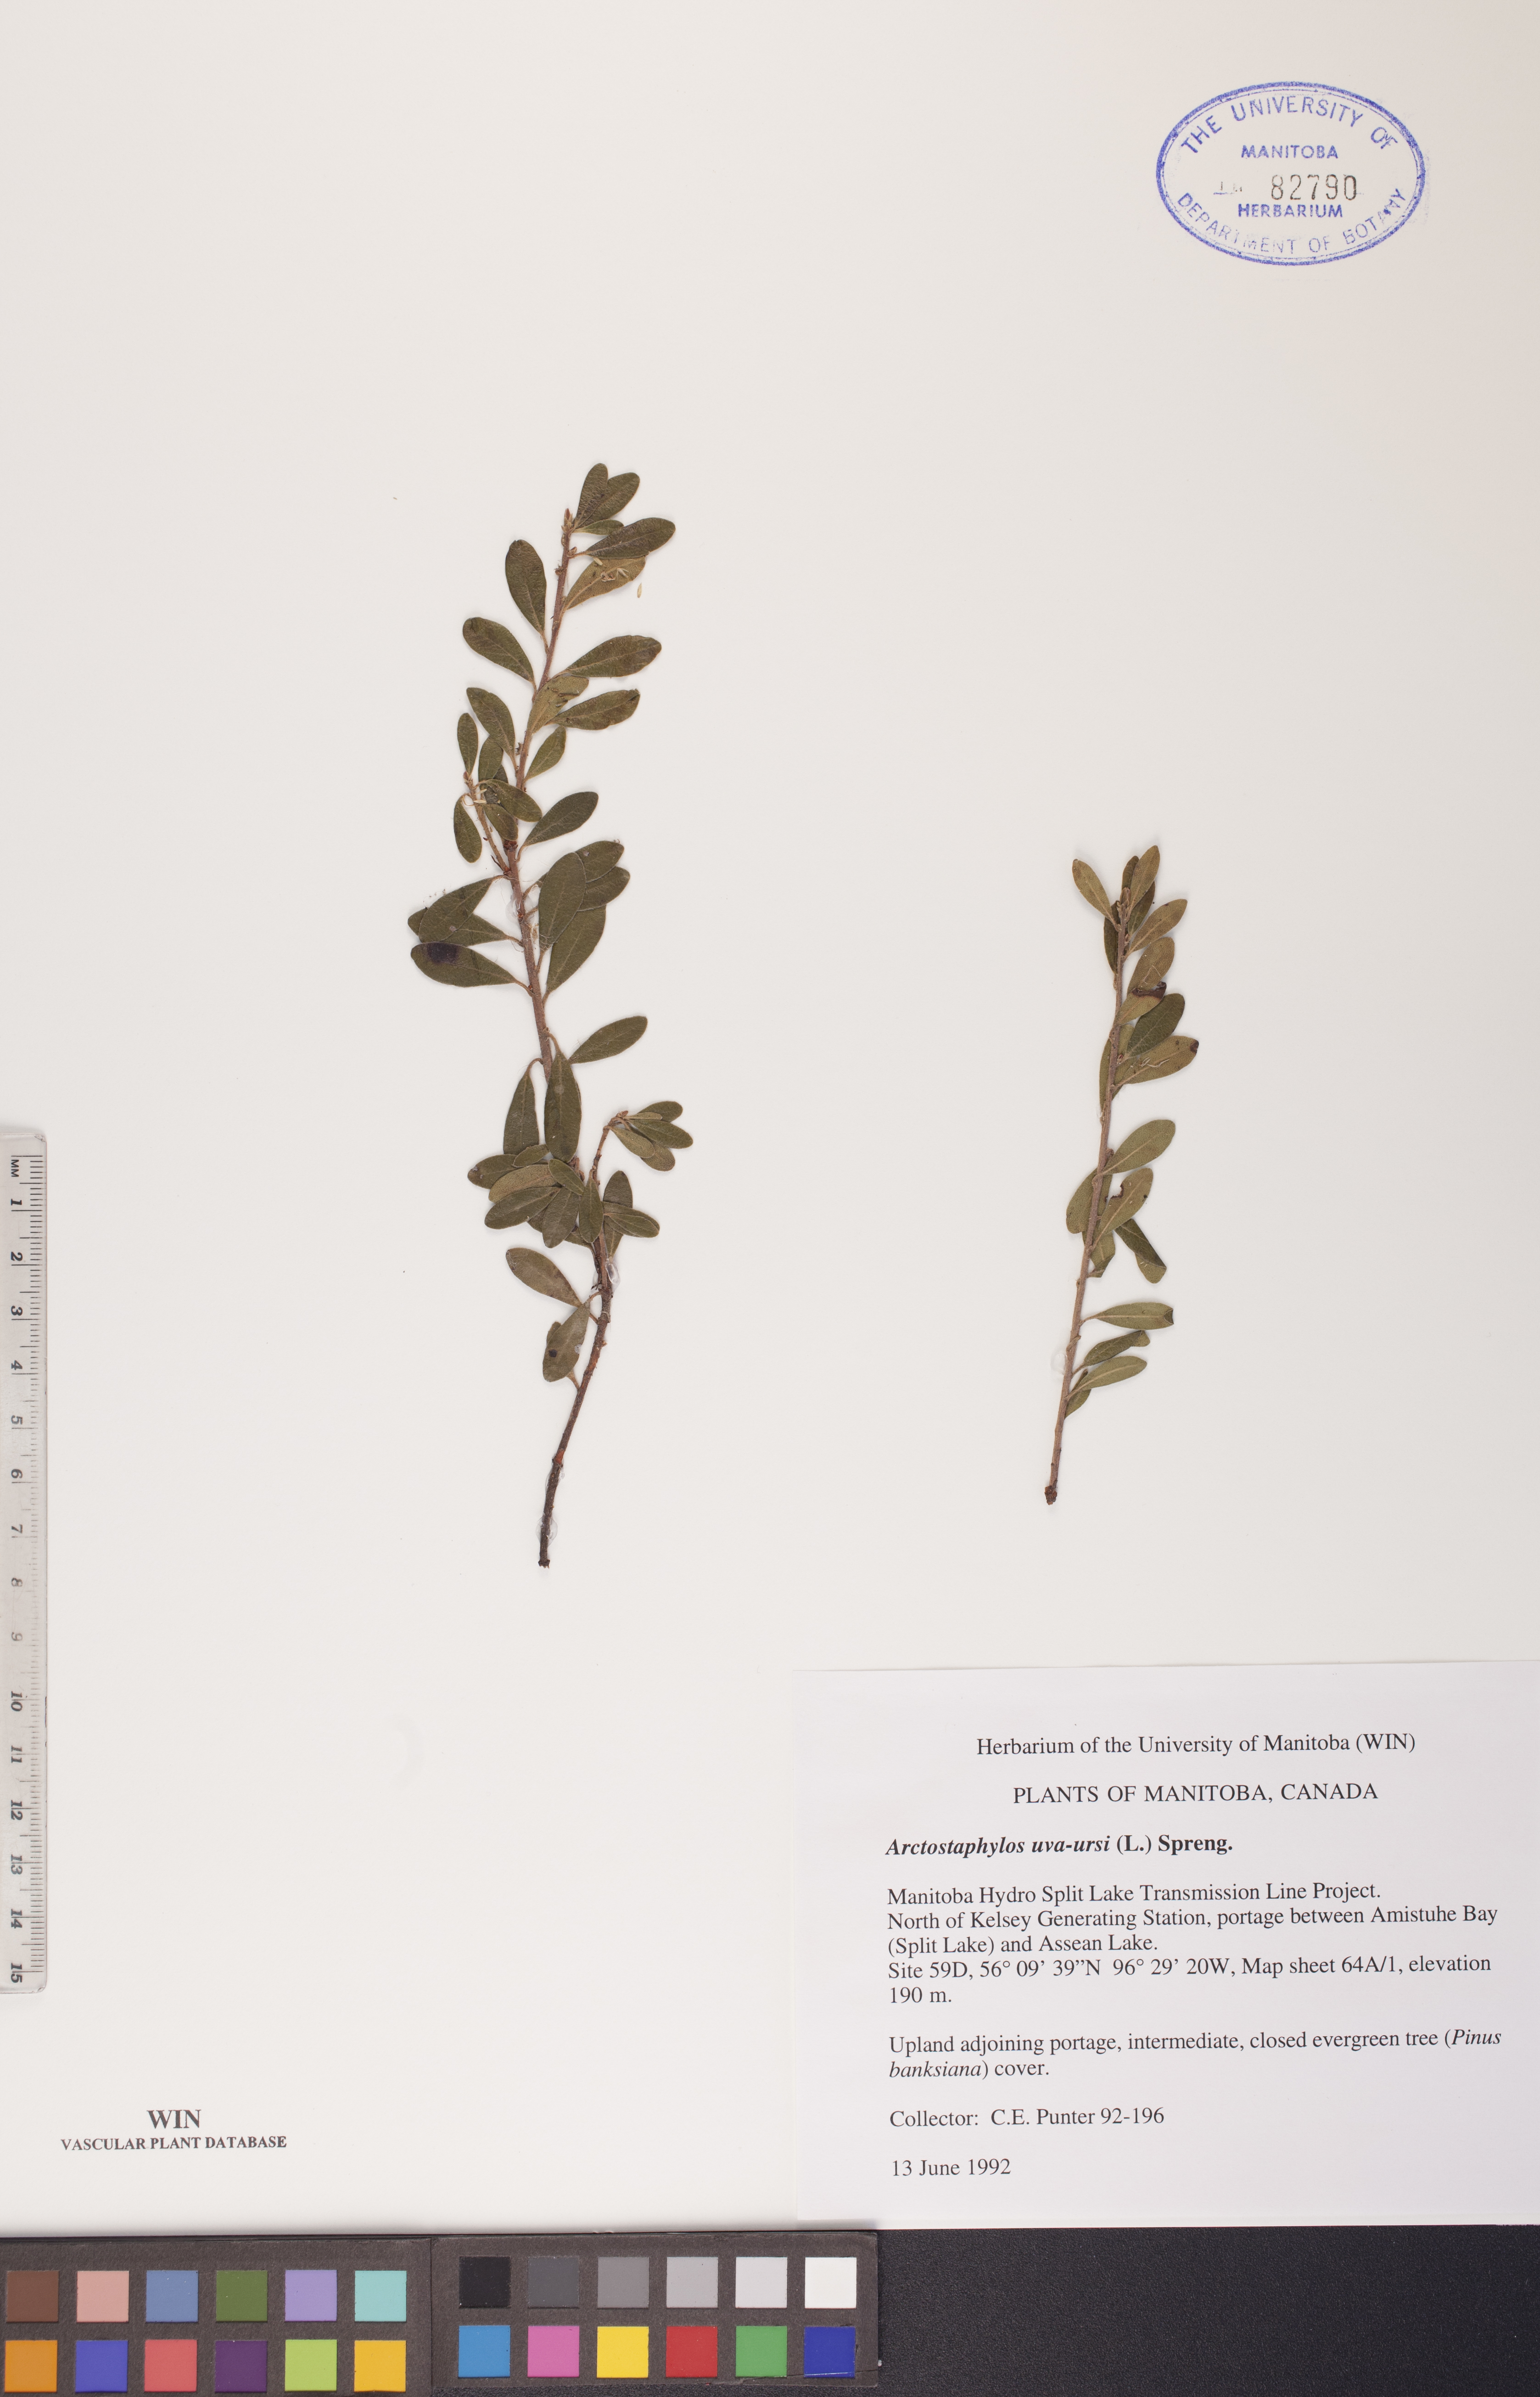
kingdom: Plantae
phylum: Tracheophyta
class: Magnoliopsida
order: Ericales
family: Ericaceae
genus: Arctostaphylos
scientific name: Arctostaphylos uva-ursi
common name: Bearberry
